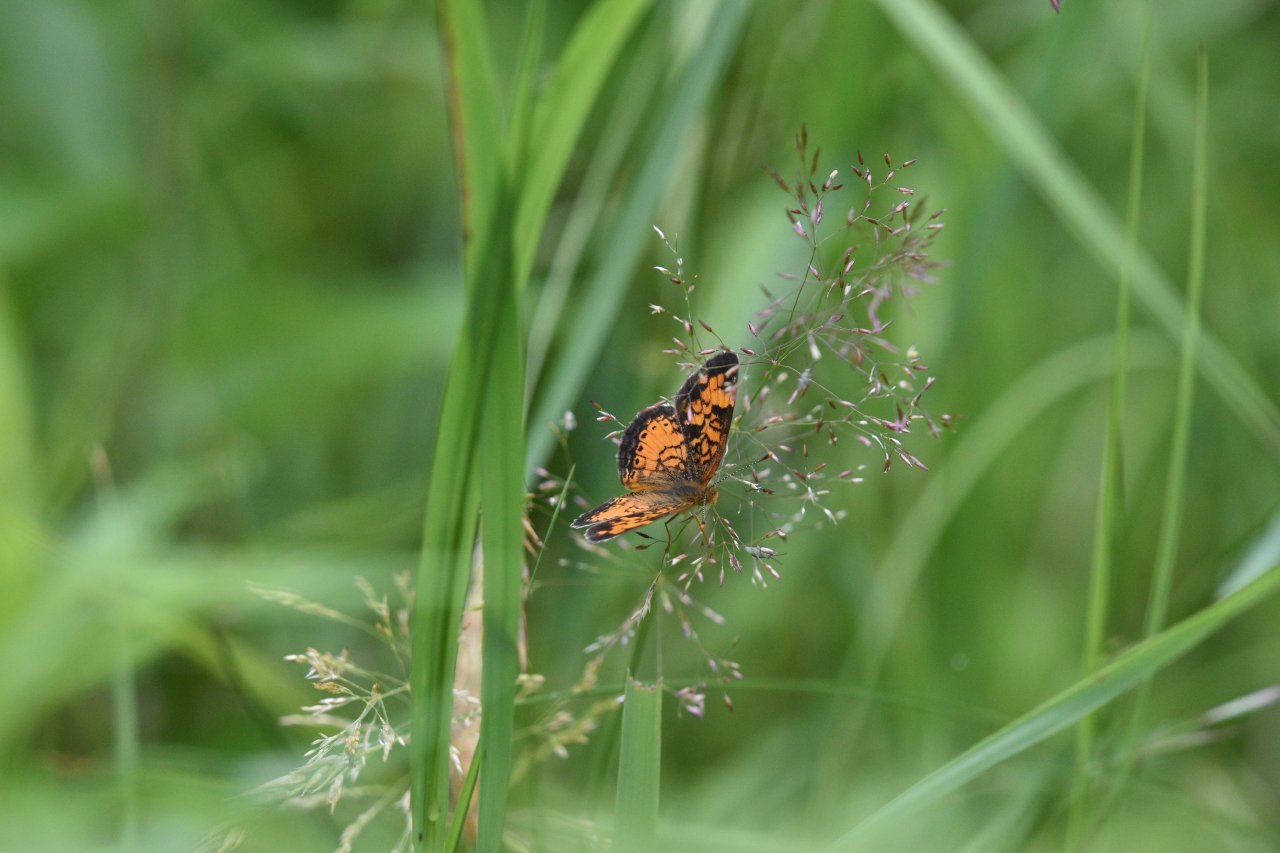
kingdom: Animalia
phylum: Arthropoda
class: Insecta
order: Lepidoptera
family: Nymphalidae
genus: Phyciodes
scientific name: Phyciodes tharos
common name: Northern Crescent
